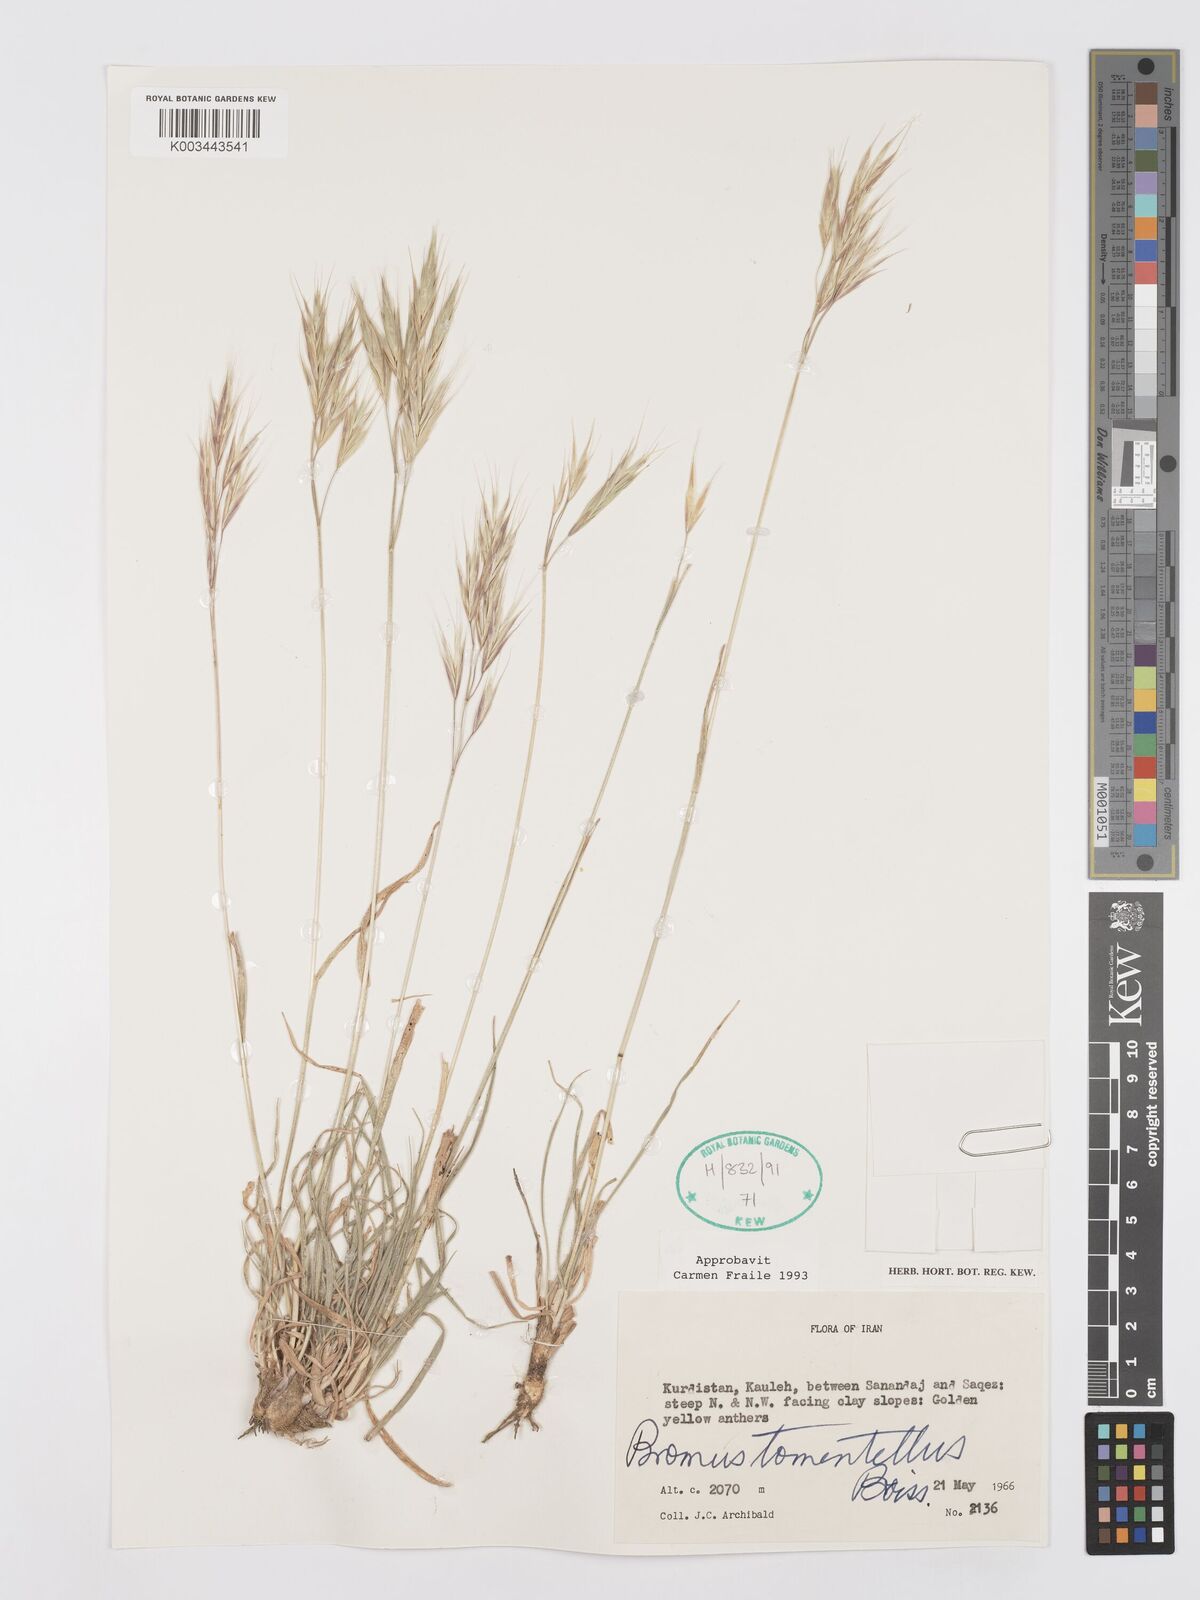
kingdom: Plantae
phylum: Tracheophyta
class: Liliopsida
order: Poales
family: Poaceae
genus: Bromus
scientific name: Bromus tomentellus
